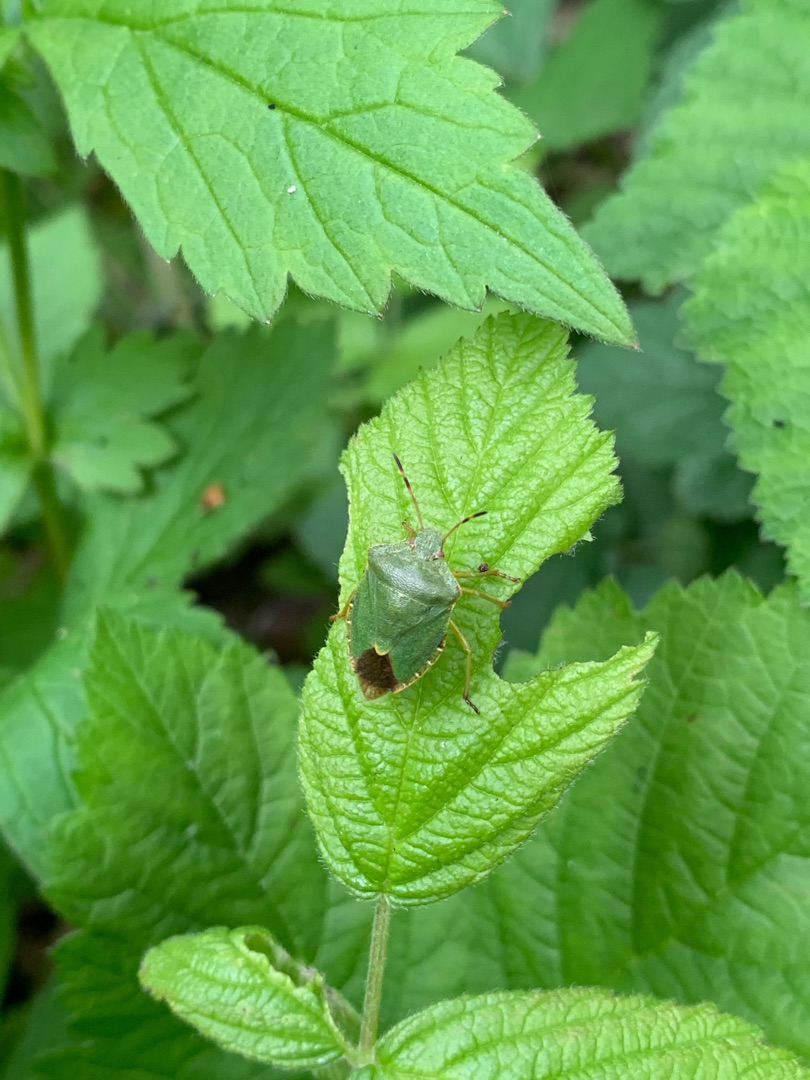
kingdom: Animalia
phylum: Arthropoda
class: Insecta
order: Hemiptera
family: Pentatomidae
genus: Palomena
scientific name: Palomena prasina
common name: Grøn bredtæge
